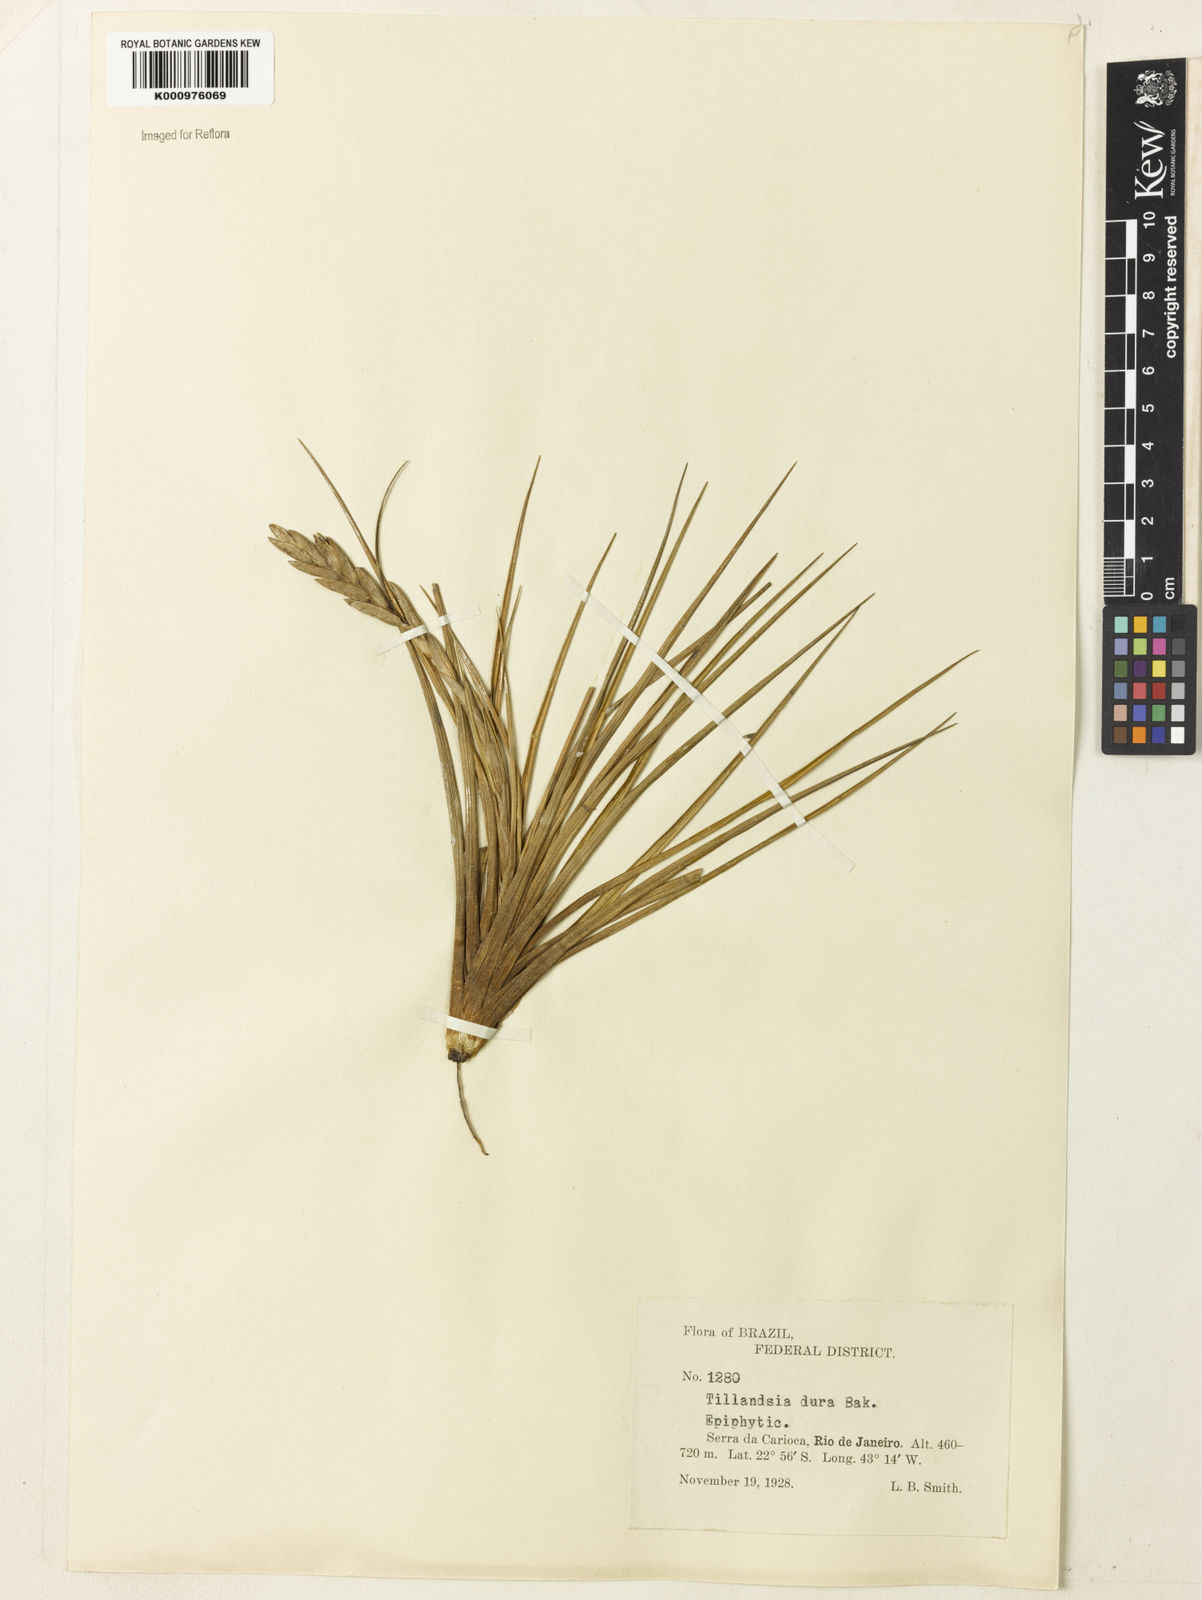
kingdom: Plantae
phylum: Tracheophyta
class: Liliopsida
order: Poales
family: Bromeliaceae
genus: Tillandsia
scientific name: Tillandsia dura
